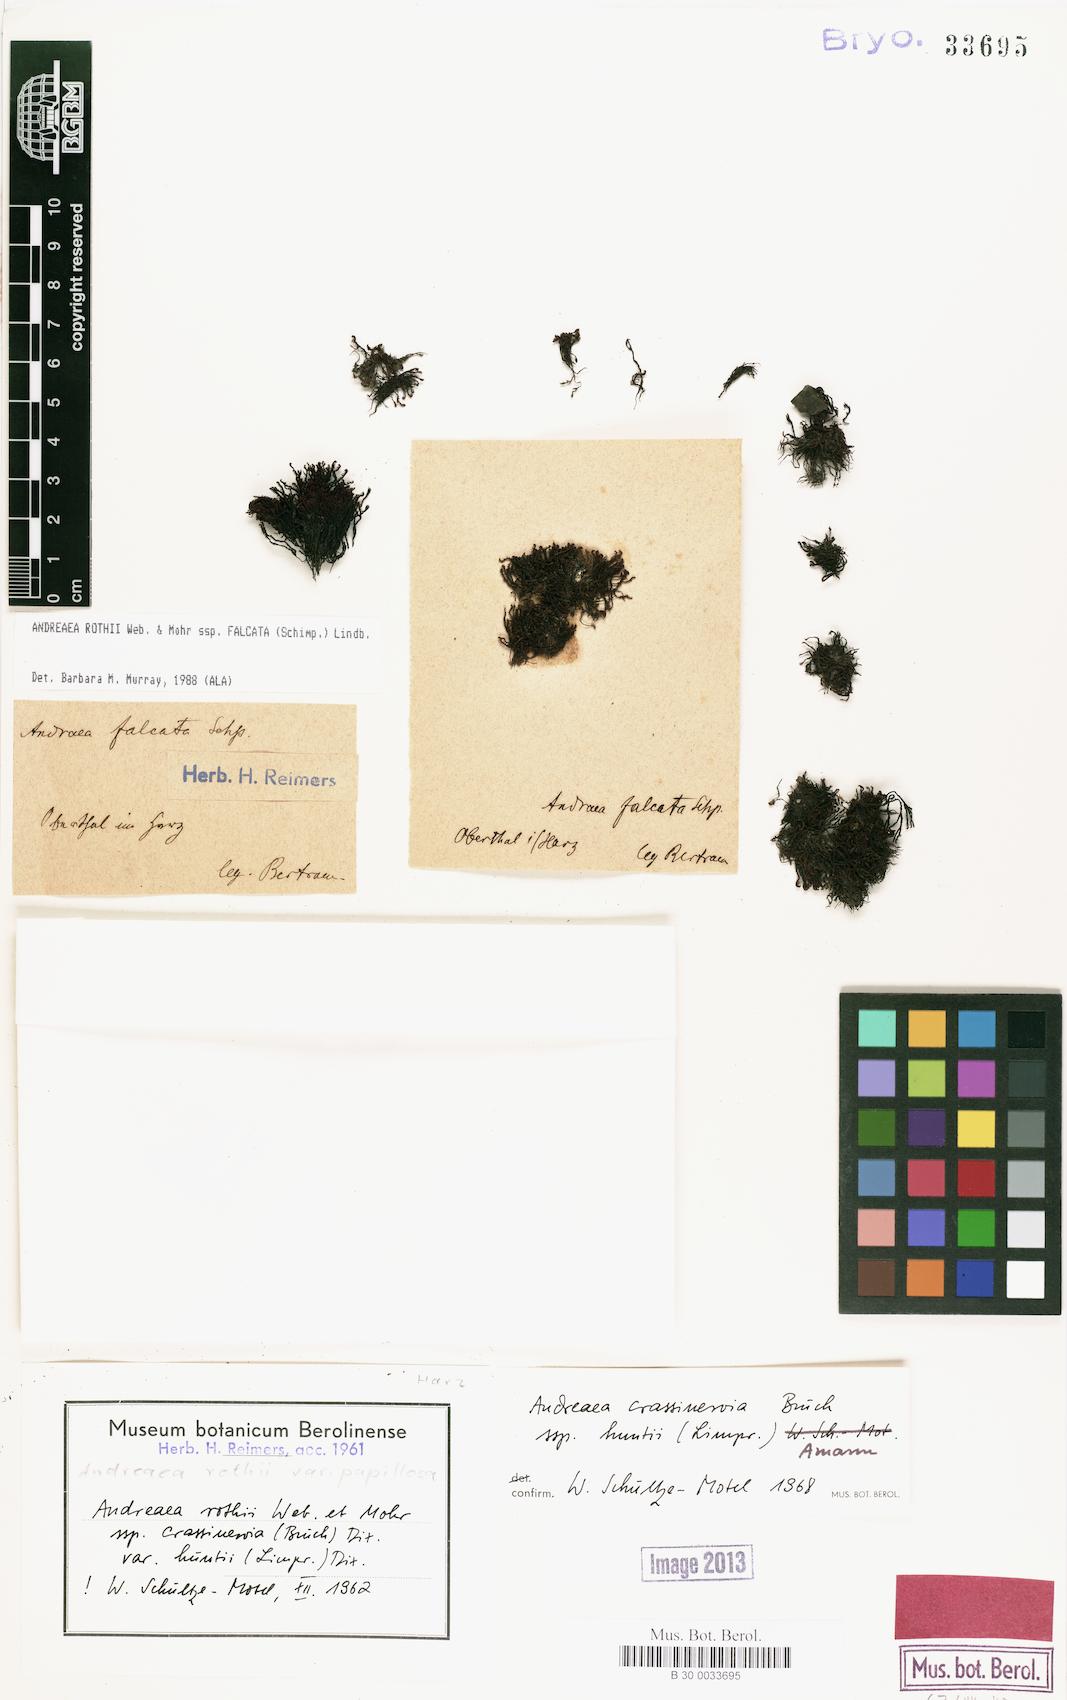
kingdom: Plantae
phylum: Bryophyta
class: Andreaeopsida
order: Andreaeales
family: Andreaeaceae
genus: Andreaea
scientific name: Andreaea rothii
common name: Dusky rock moss
